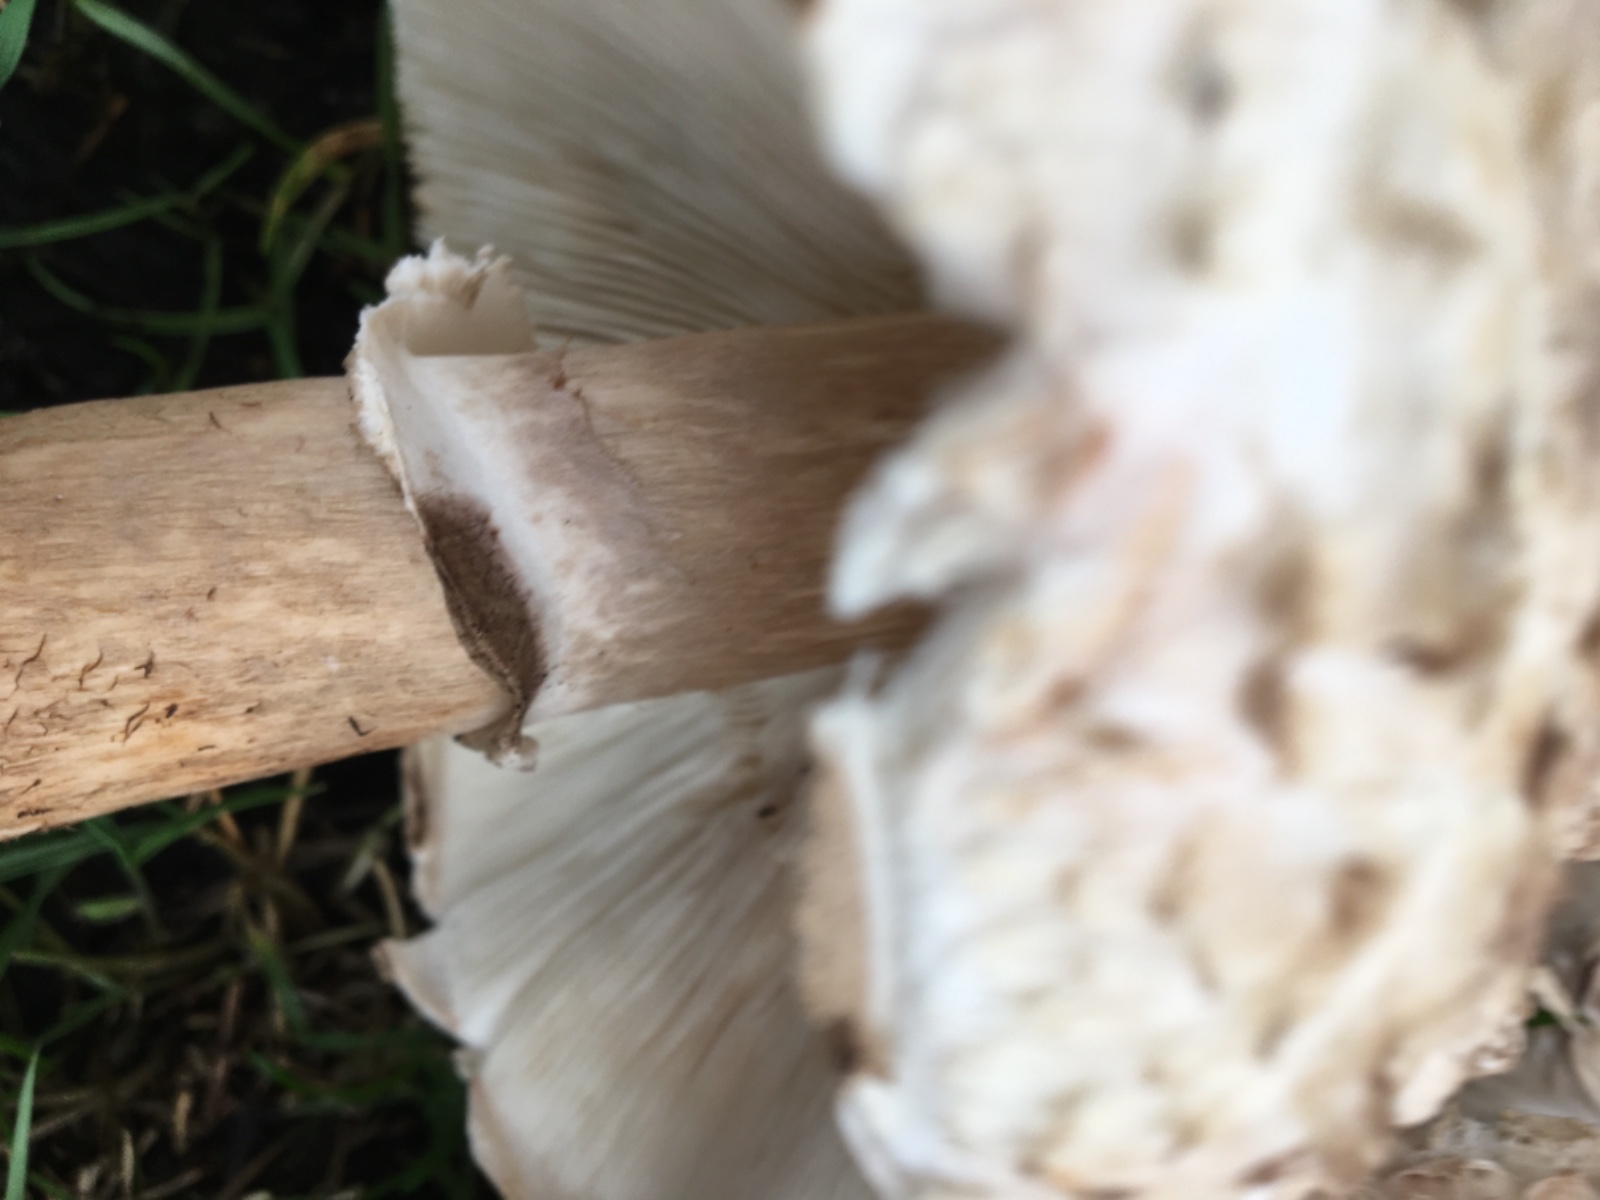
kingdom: Fungi
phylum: Basidiomycota
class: Agaricomycetes
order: Agaricales
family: Agaricaceae
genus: Chlorophyllum
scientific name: Chlorophyllum brunneum
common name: giftig rabarberhat
